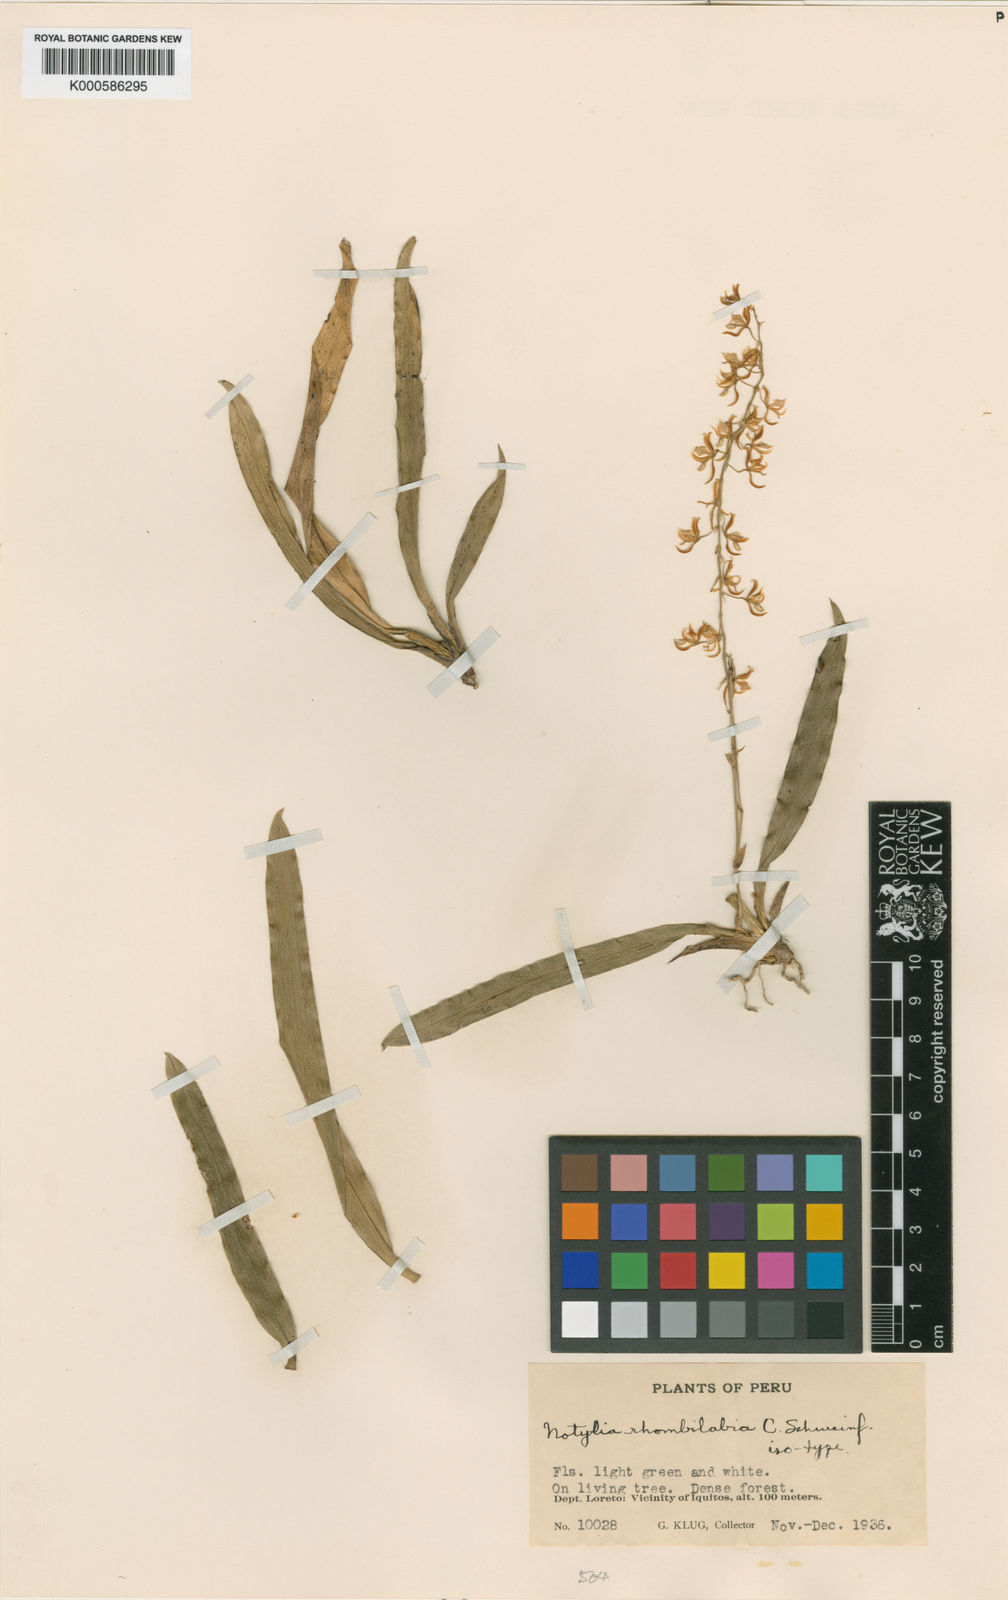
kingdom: Plantae
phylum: Tracheophyta
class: Liliopsida
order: Asparagales
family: Orchidaceae
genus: Notylia
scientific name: Notylia rhombilabia
